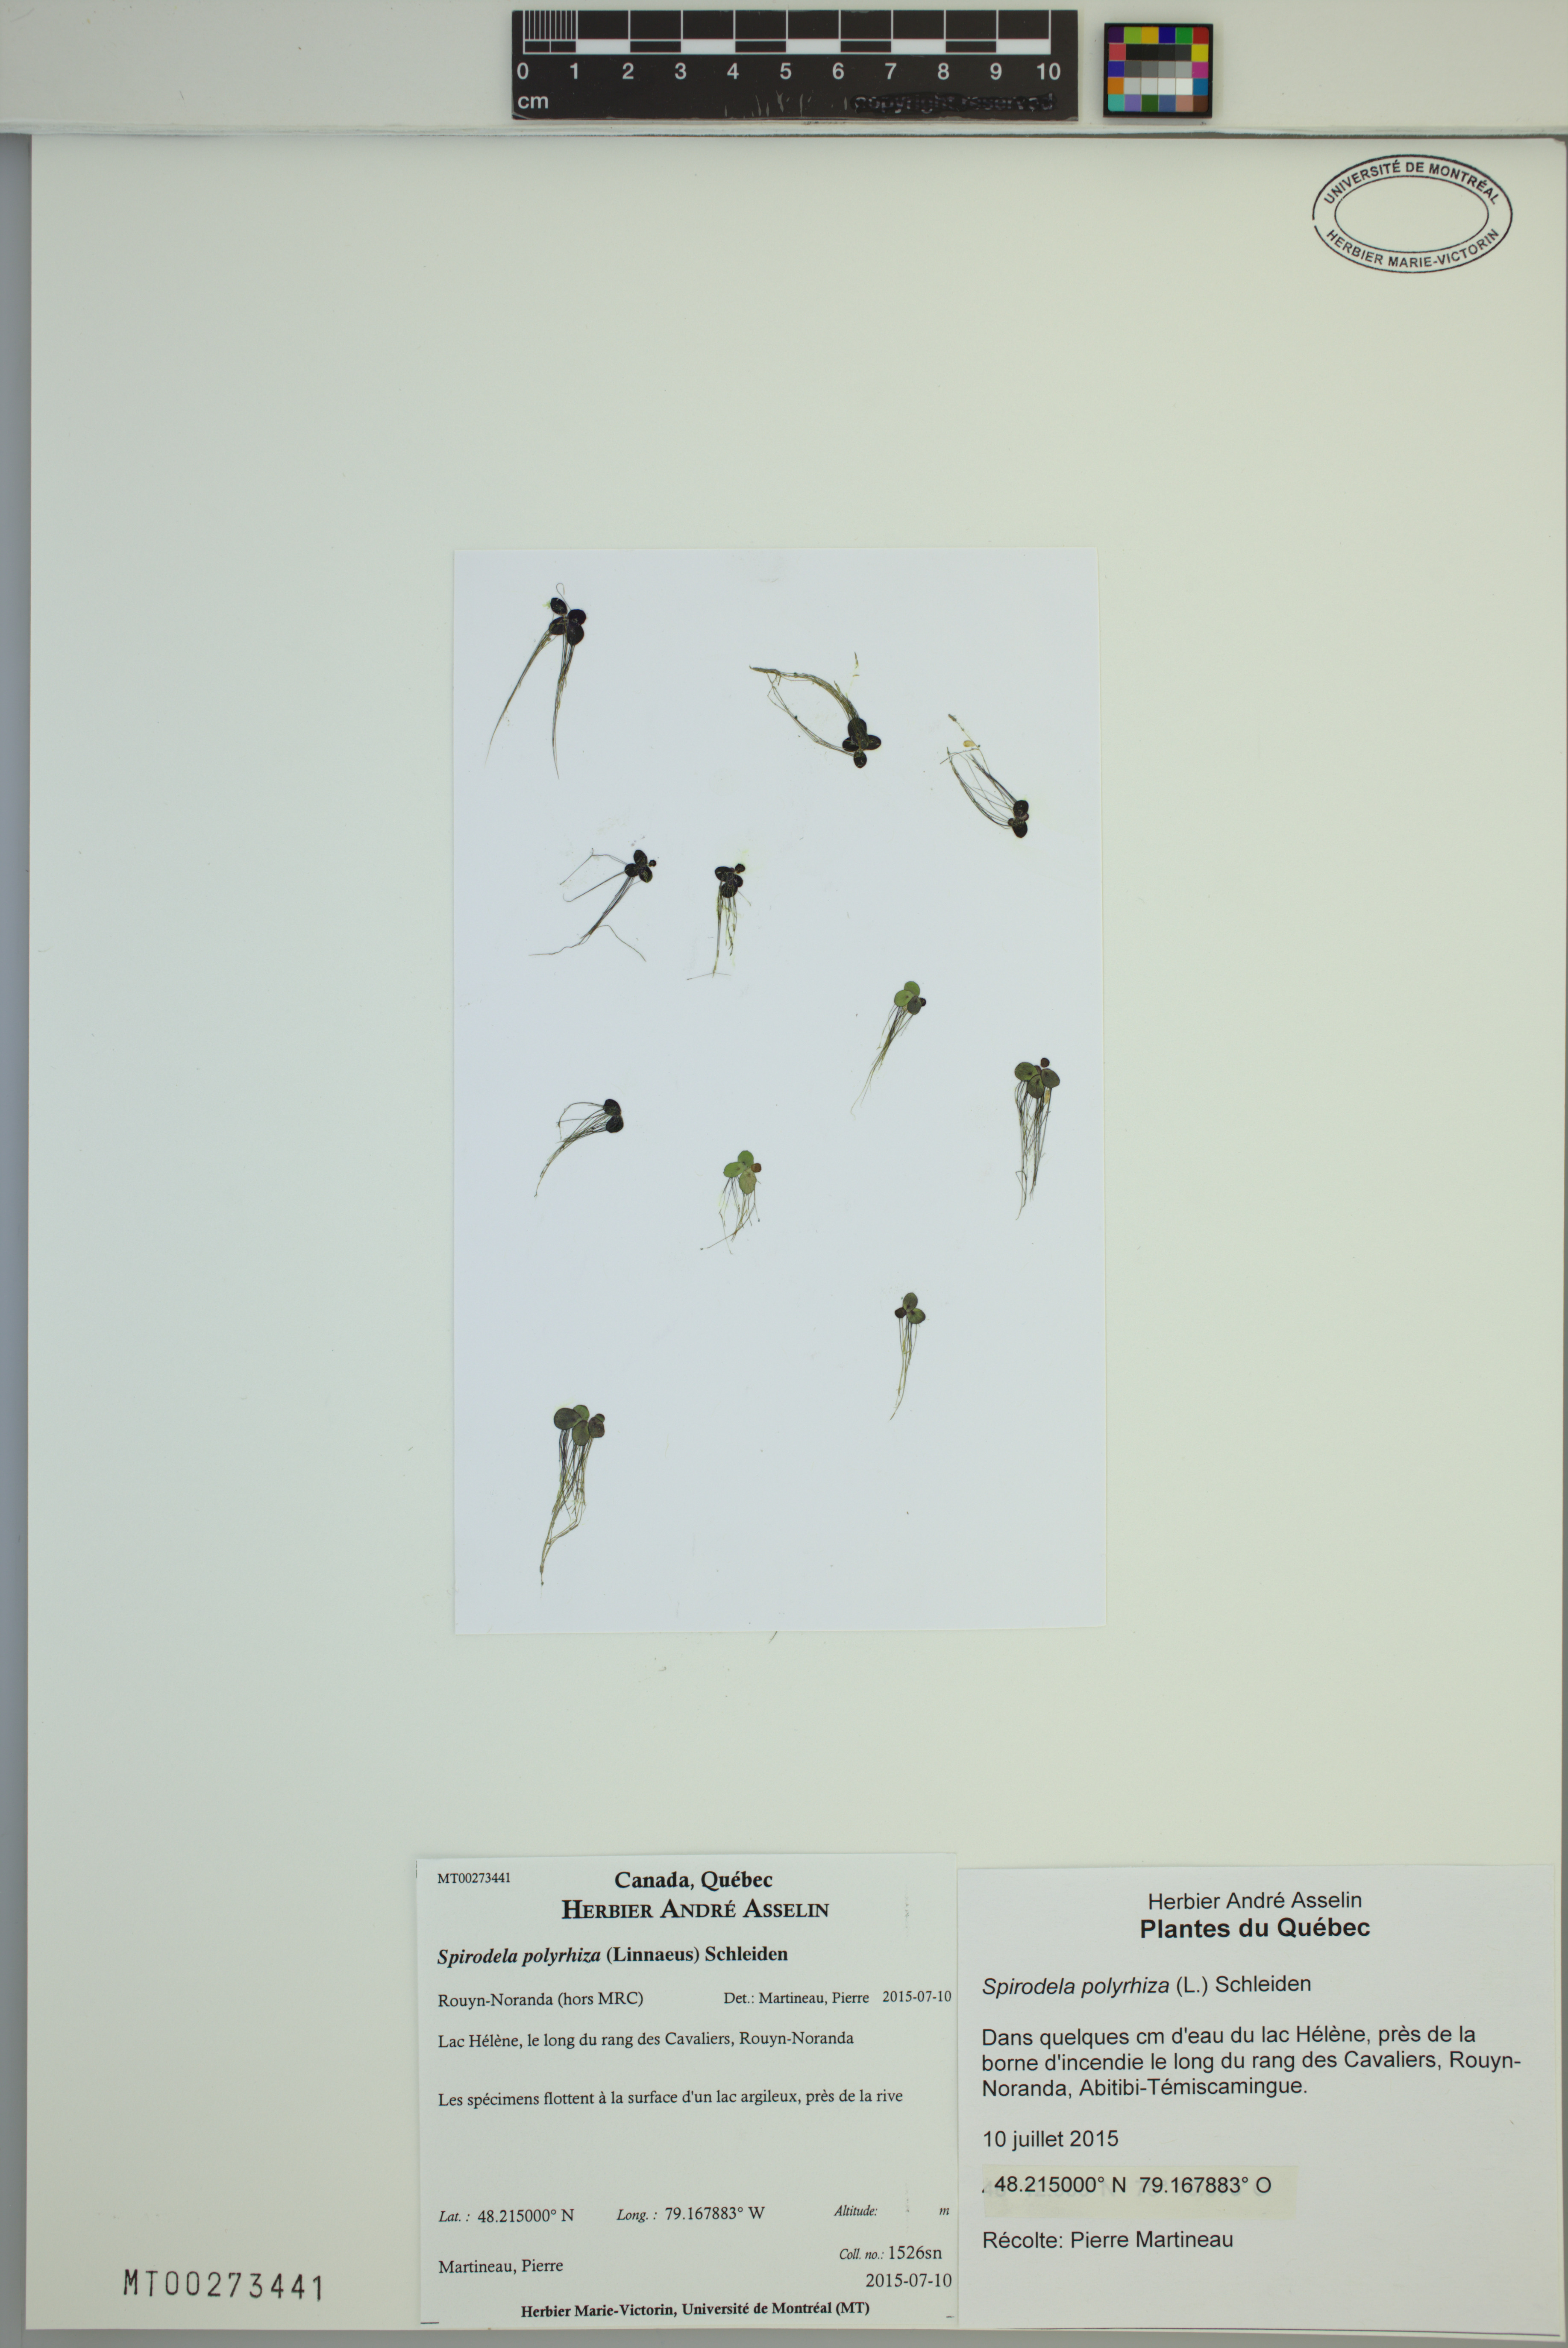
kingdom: Plantae
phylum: Tracheophyta
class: Liliopsida
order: Alismatales
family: Araceae
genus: Spirodela
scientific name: Spirodela polyrhiza
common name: Great duckweed
